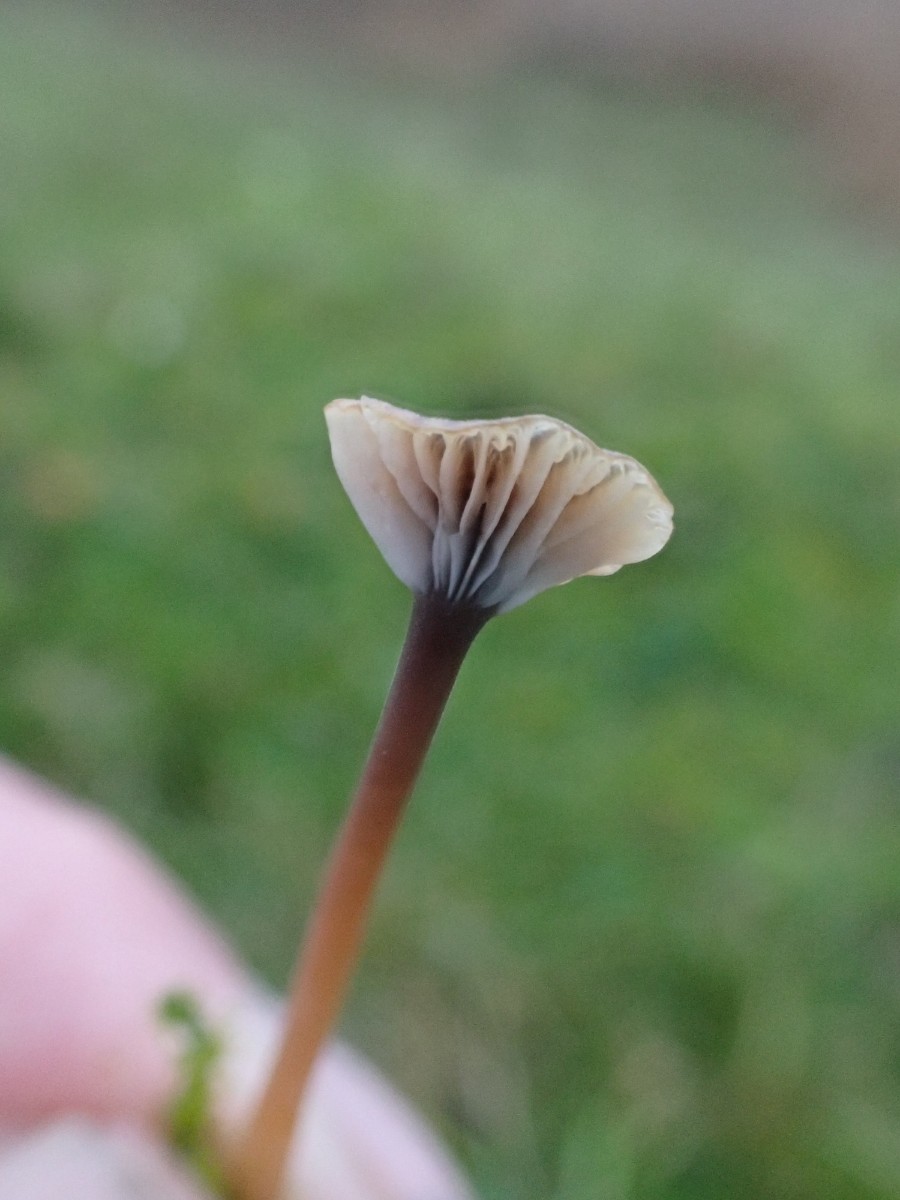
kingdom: Fungi
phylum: Basidiomycota
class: Agaricomycetes
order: Hymenochaetales
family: Rickenellaceae
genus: Rickenella
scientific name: Rickenella swartzii
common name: finstokket mosnavlehat
